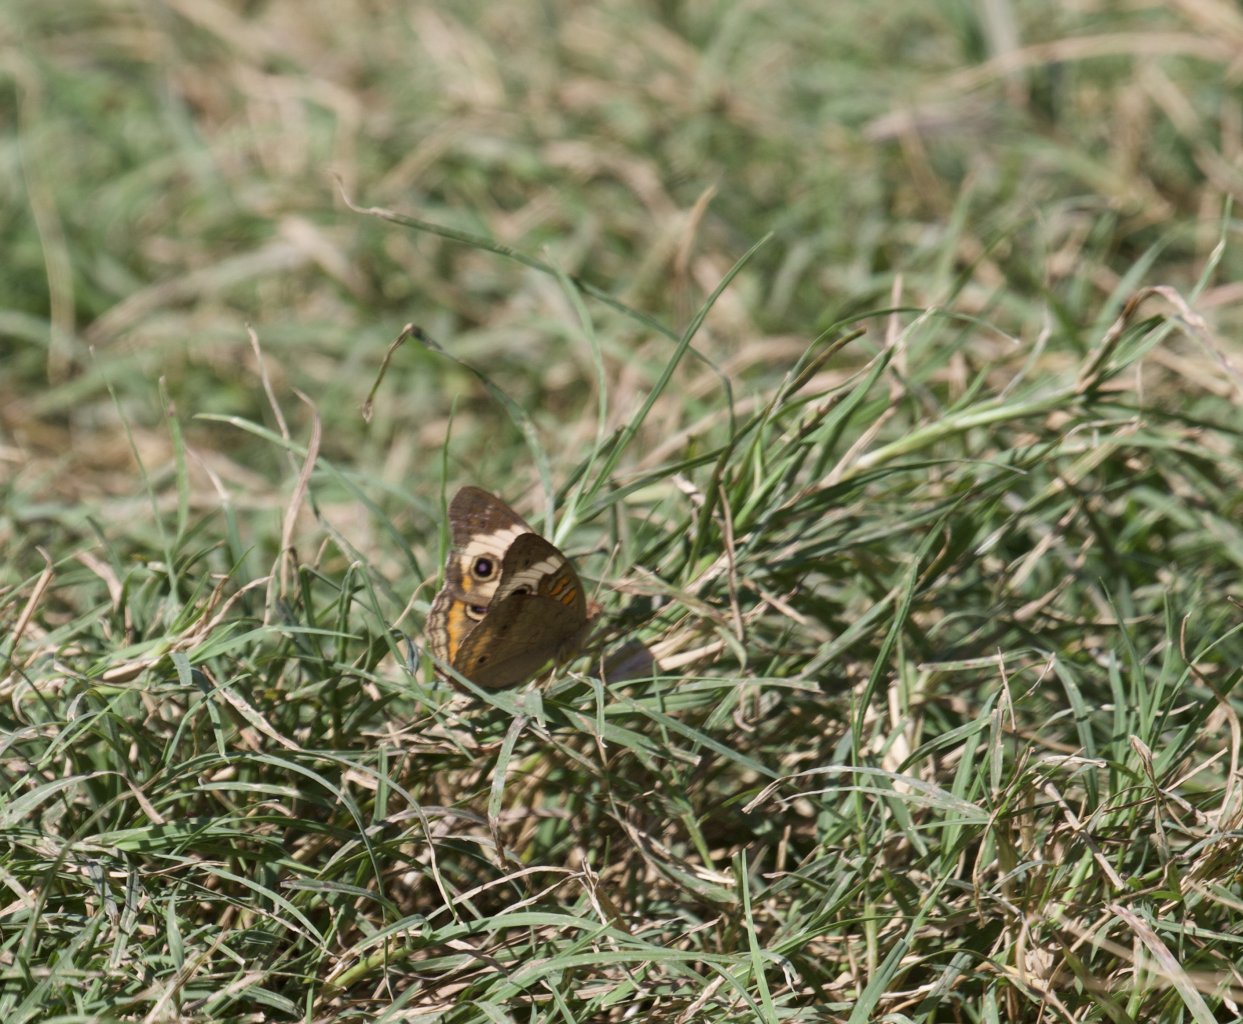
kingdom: Animalia
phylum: Arthropoda
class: Insecta
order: Lepidoptera
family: Nymphalidae
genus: Junonia
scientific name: Junonia coenia
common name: Common Buckeye
